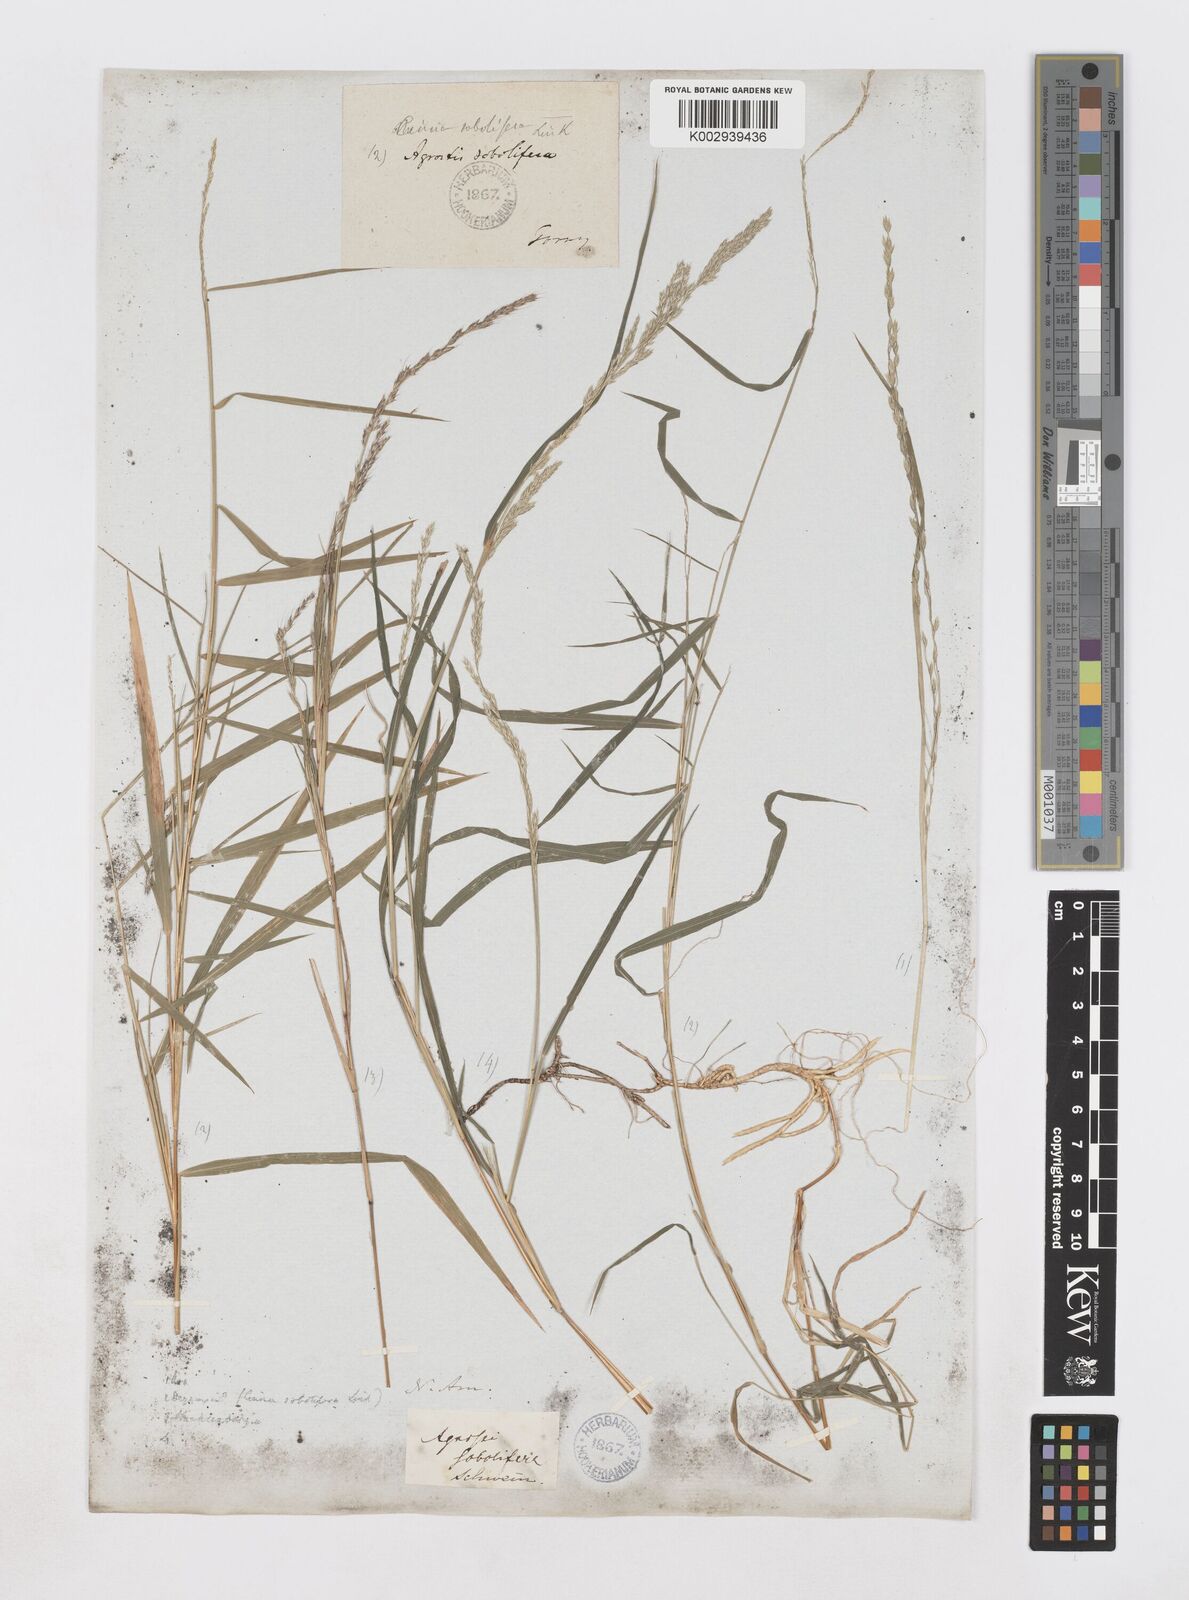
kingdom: Plantae
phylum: Tracheophyta
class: Liliopsida
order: Poales
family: Poaceae
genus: Muhlenbergia
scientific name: Muhlenbergia sobolifera
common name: Creeping muhly
